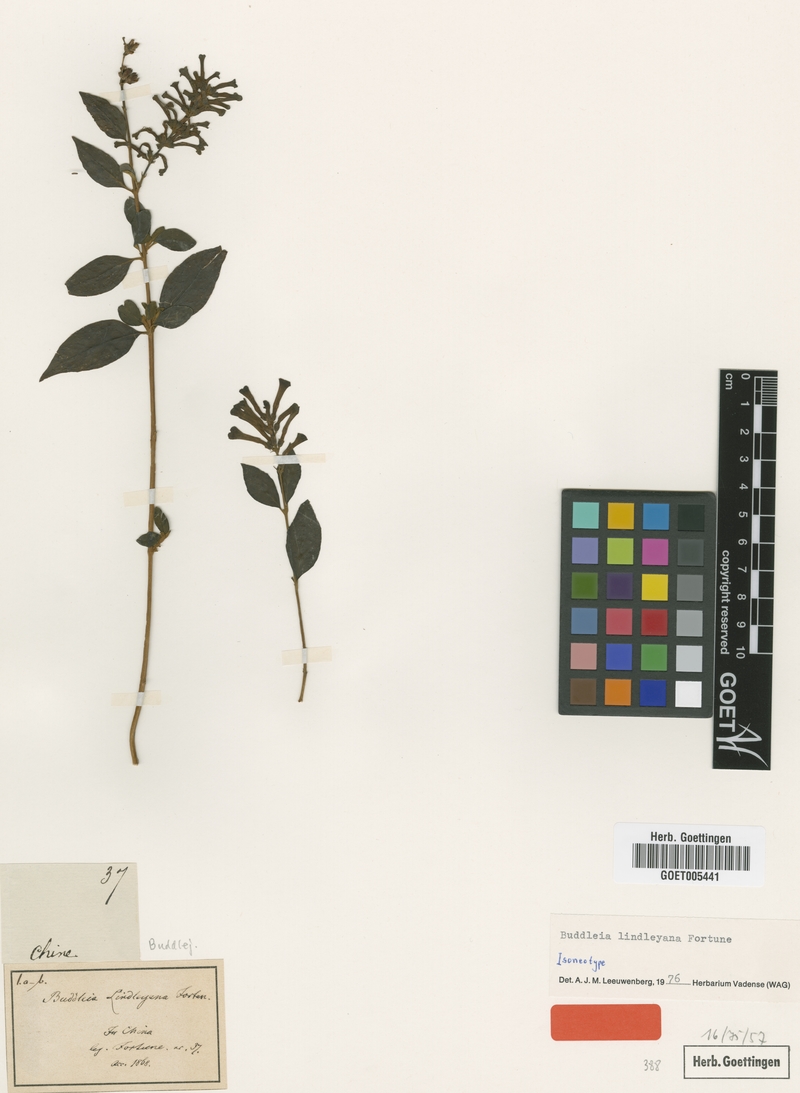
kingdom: Plantae
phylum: Tracheophyta
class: Magnoliopsida
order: Lamiales
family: Scrophulariaceae
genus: Buddleja
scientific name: Buddleja lindleyana
